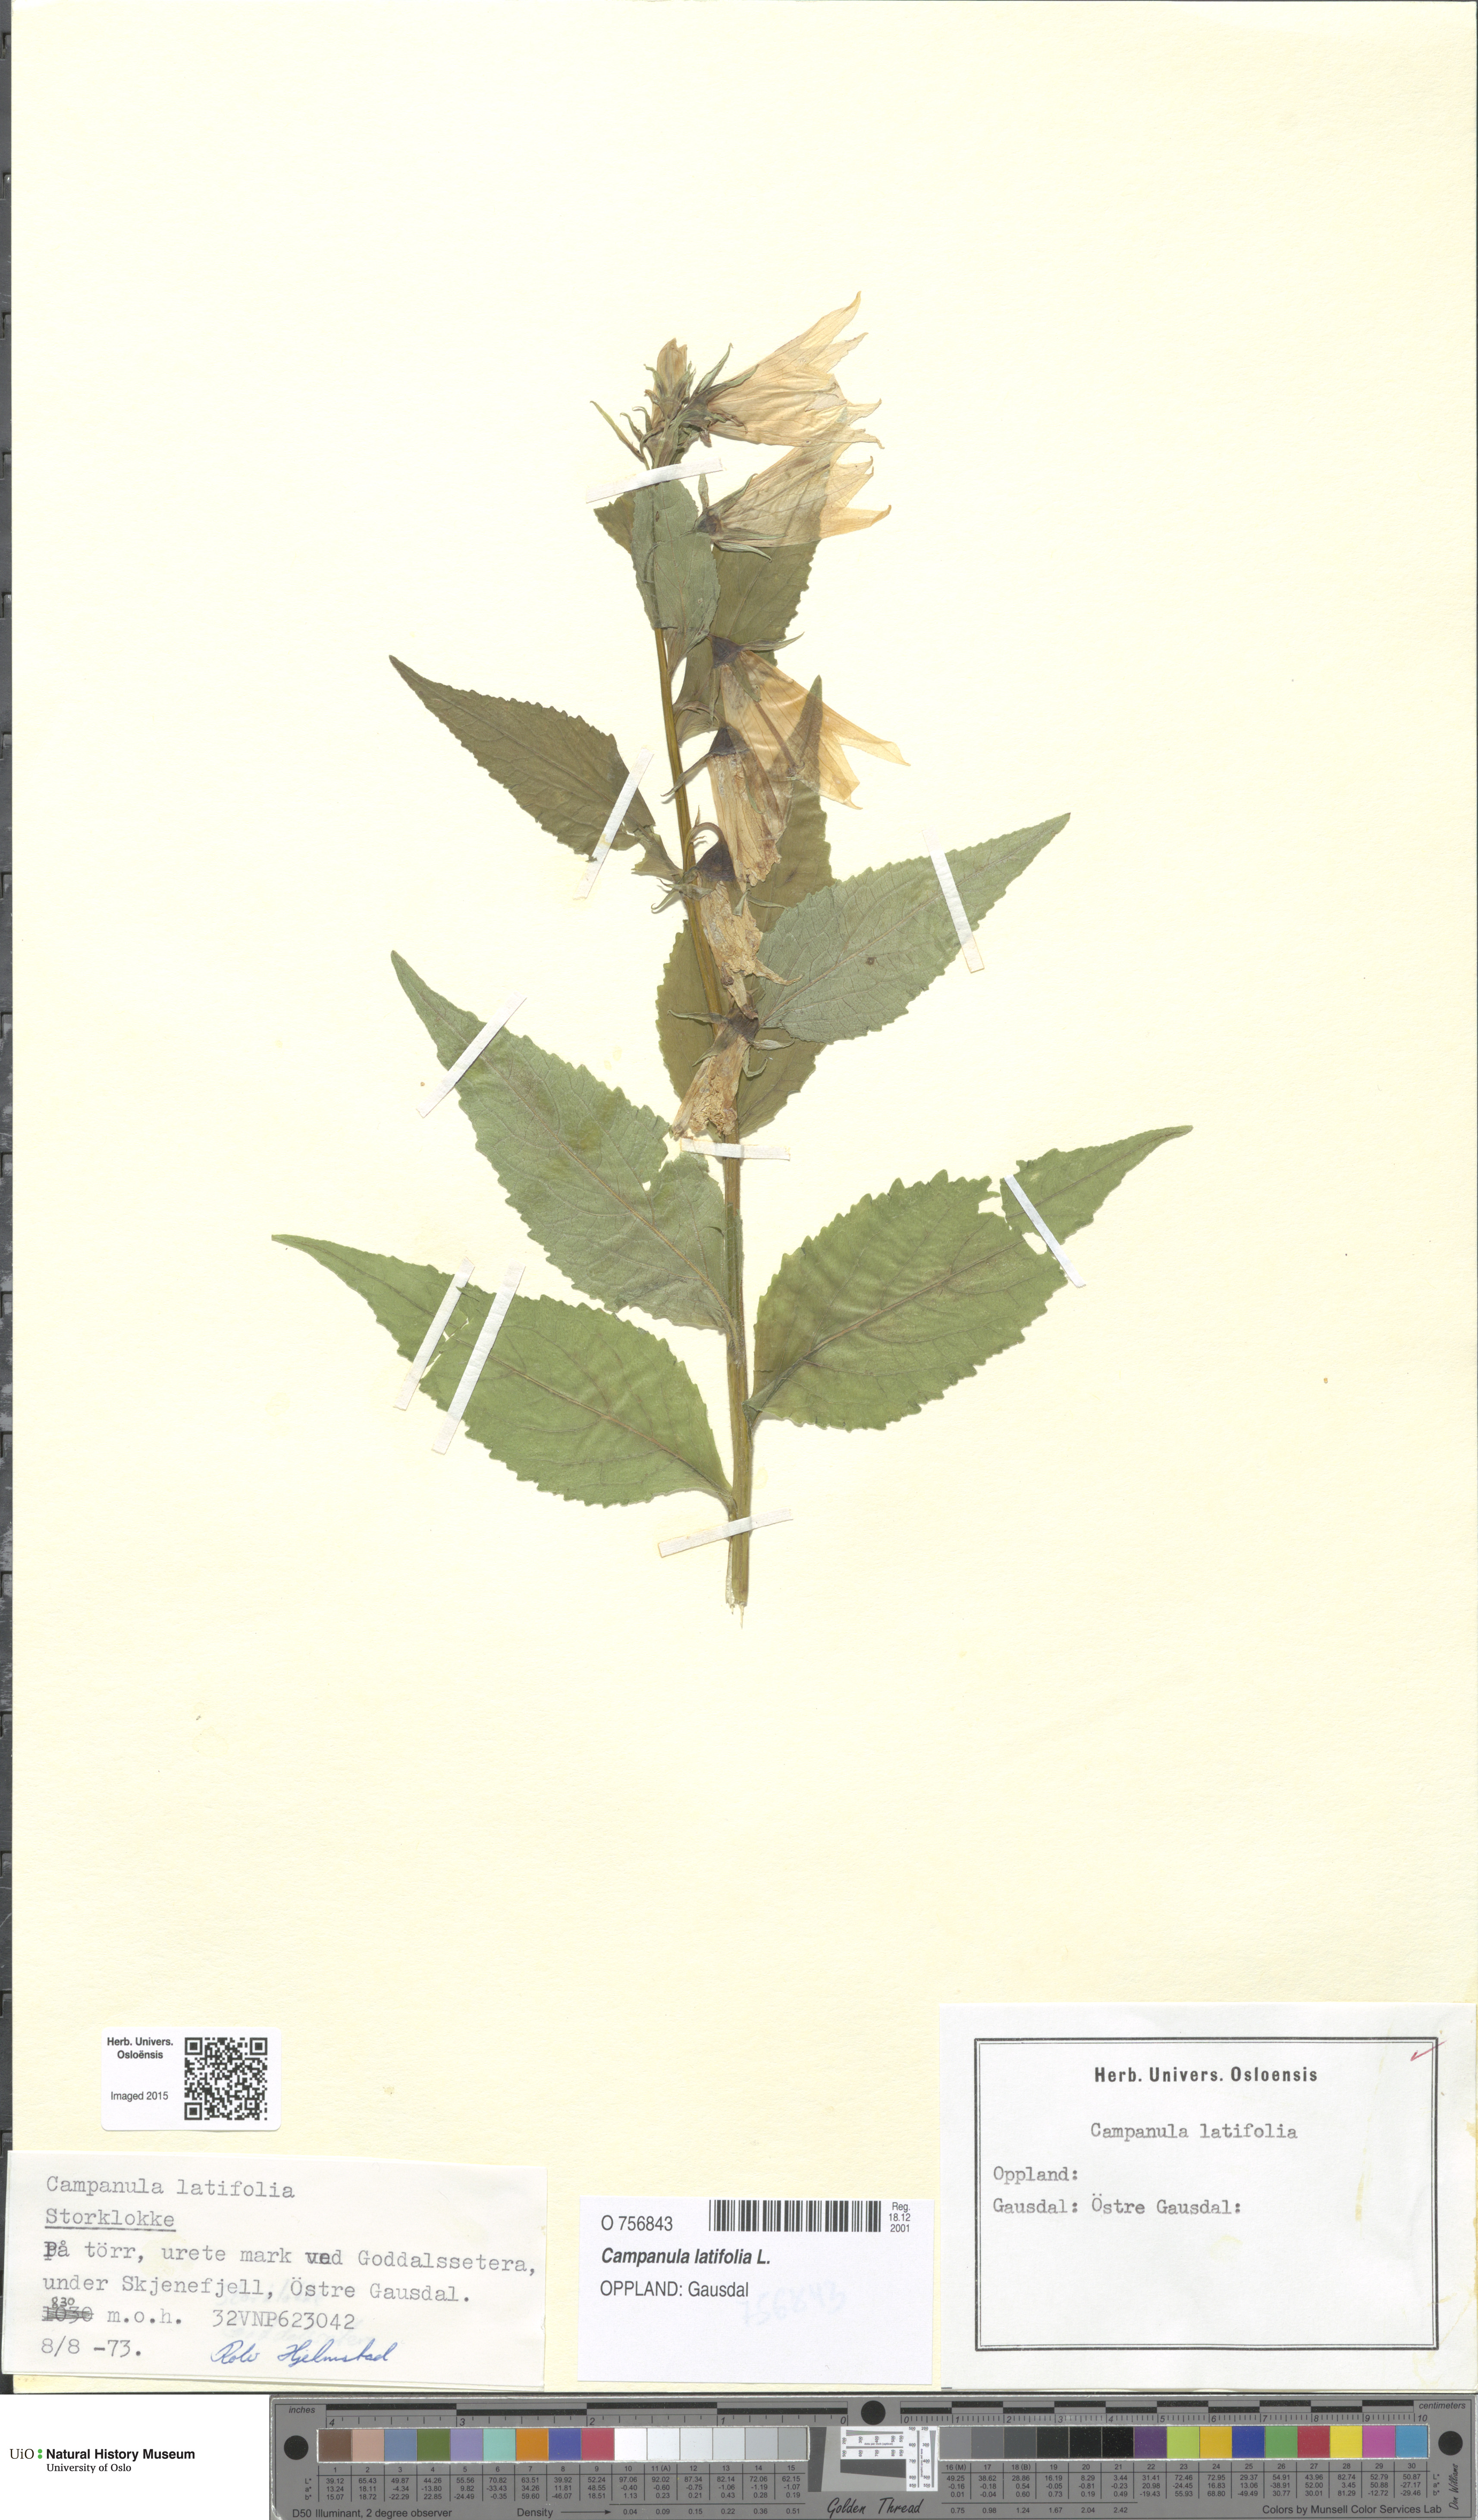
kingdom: Plantae
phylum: Tracheophyta
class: Magnoliopsida
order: Asterales
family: Campanulaceae
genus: Campanula
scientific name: Campanula latifolia
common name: Giant bellflower
